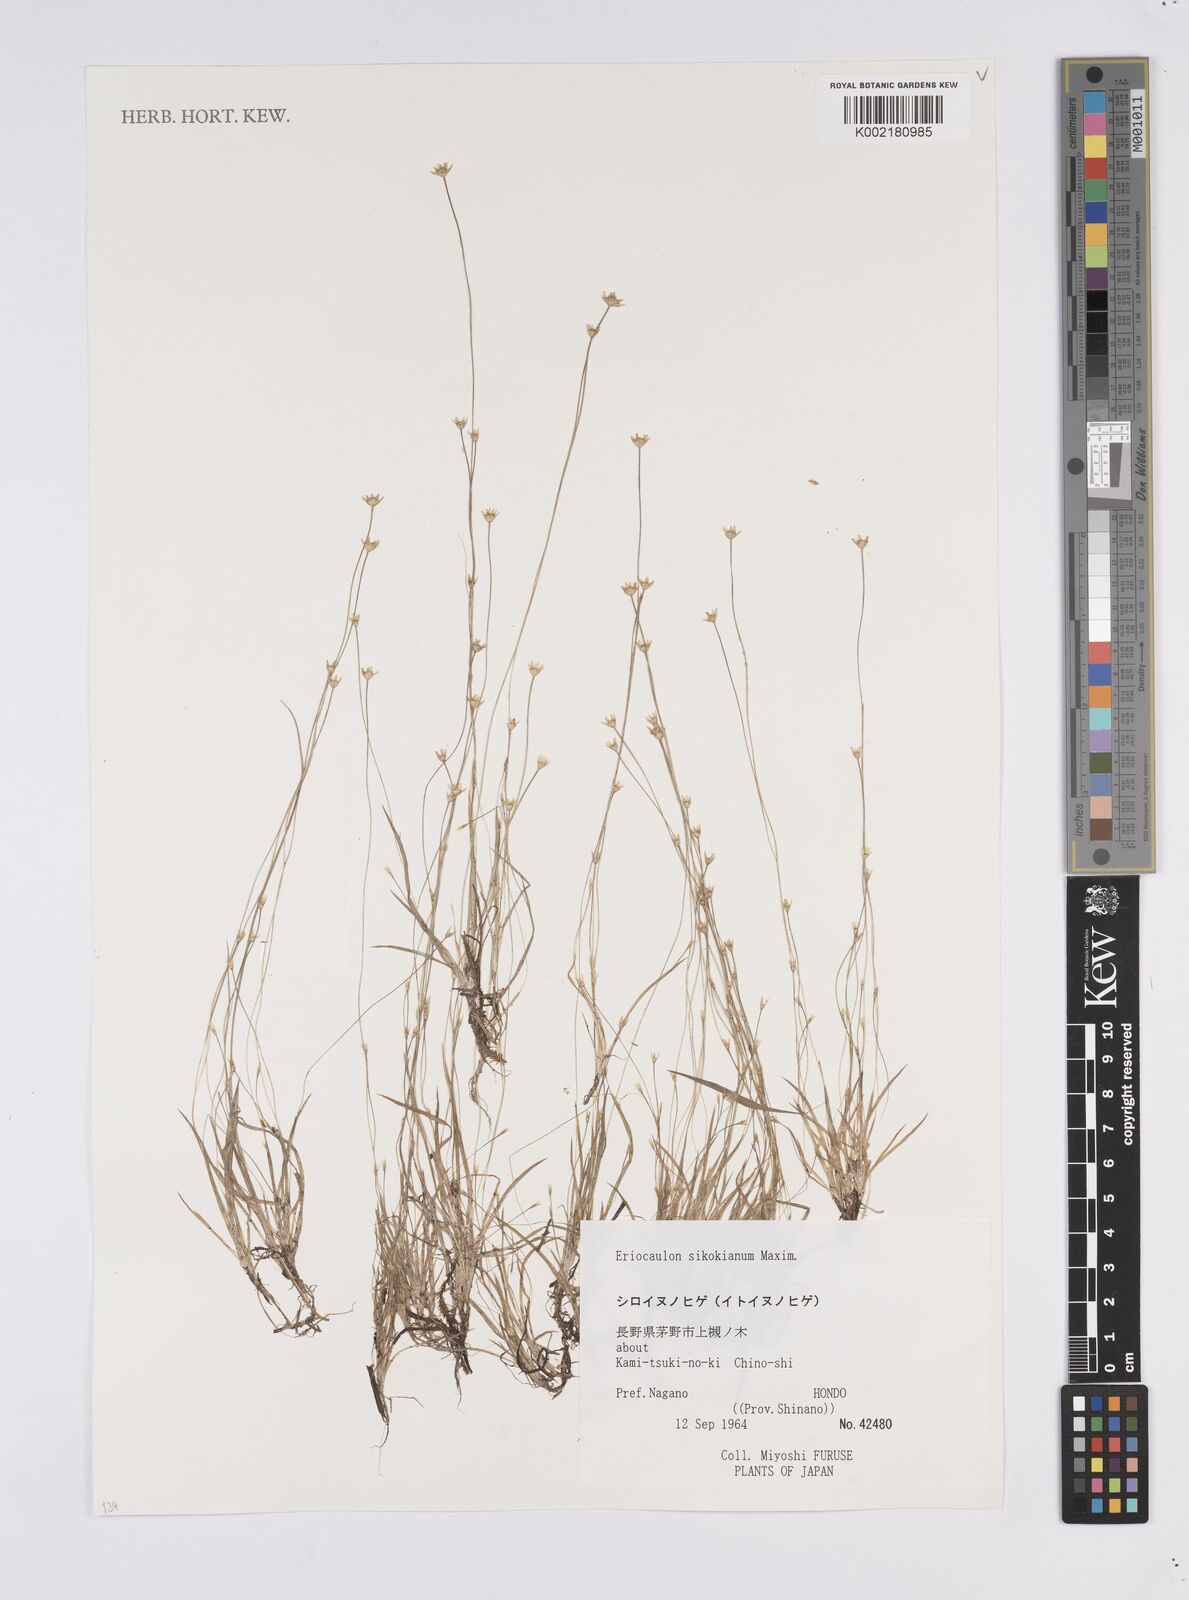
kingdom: Plantae
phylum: Tracheophyta
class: Liliopsida
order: Poales
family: Eriocaulaceae
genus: Eriocaulon
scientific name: Eriocaulon miquelianum
